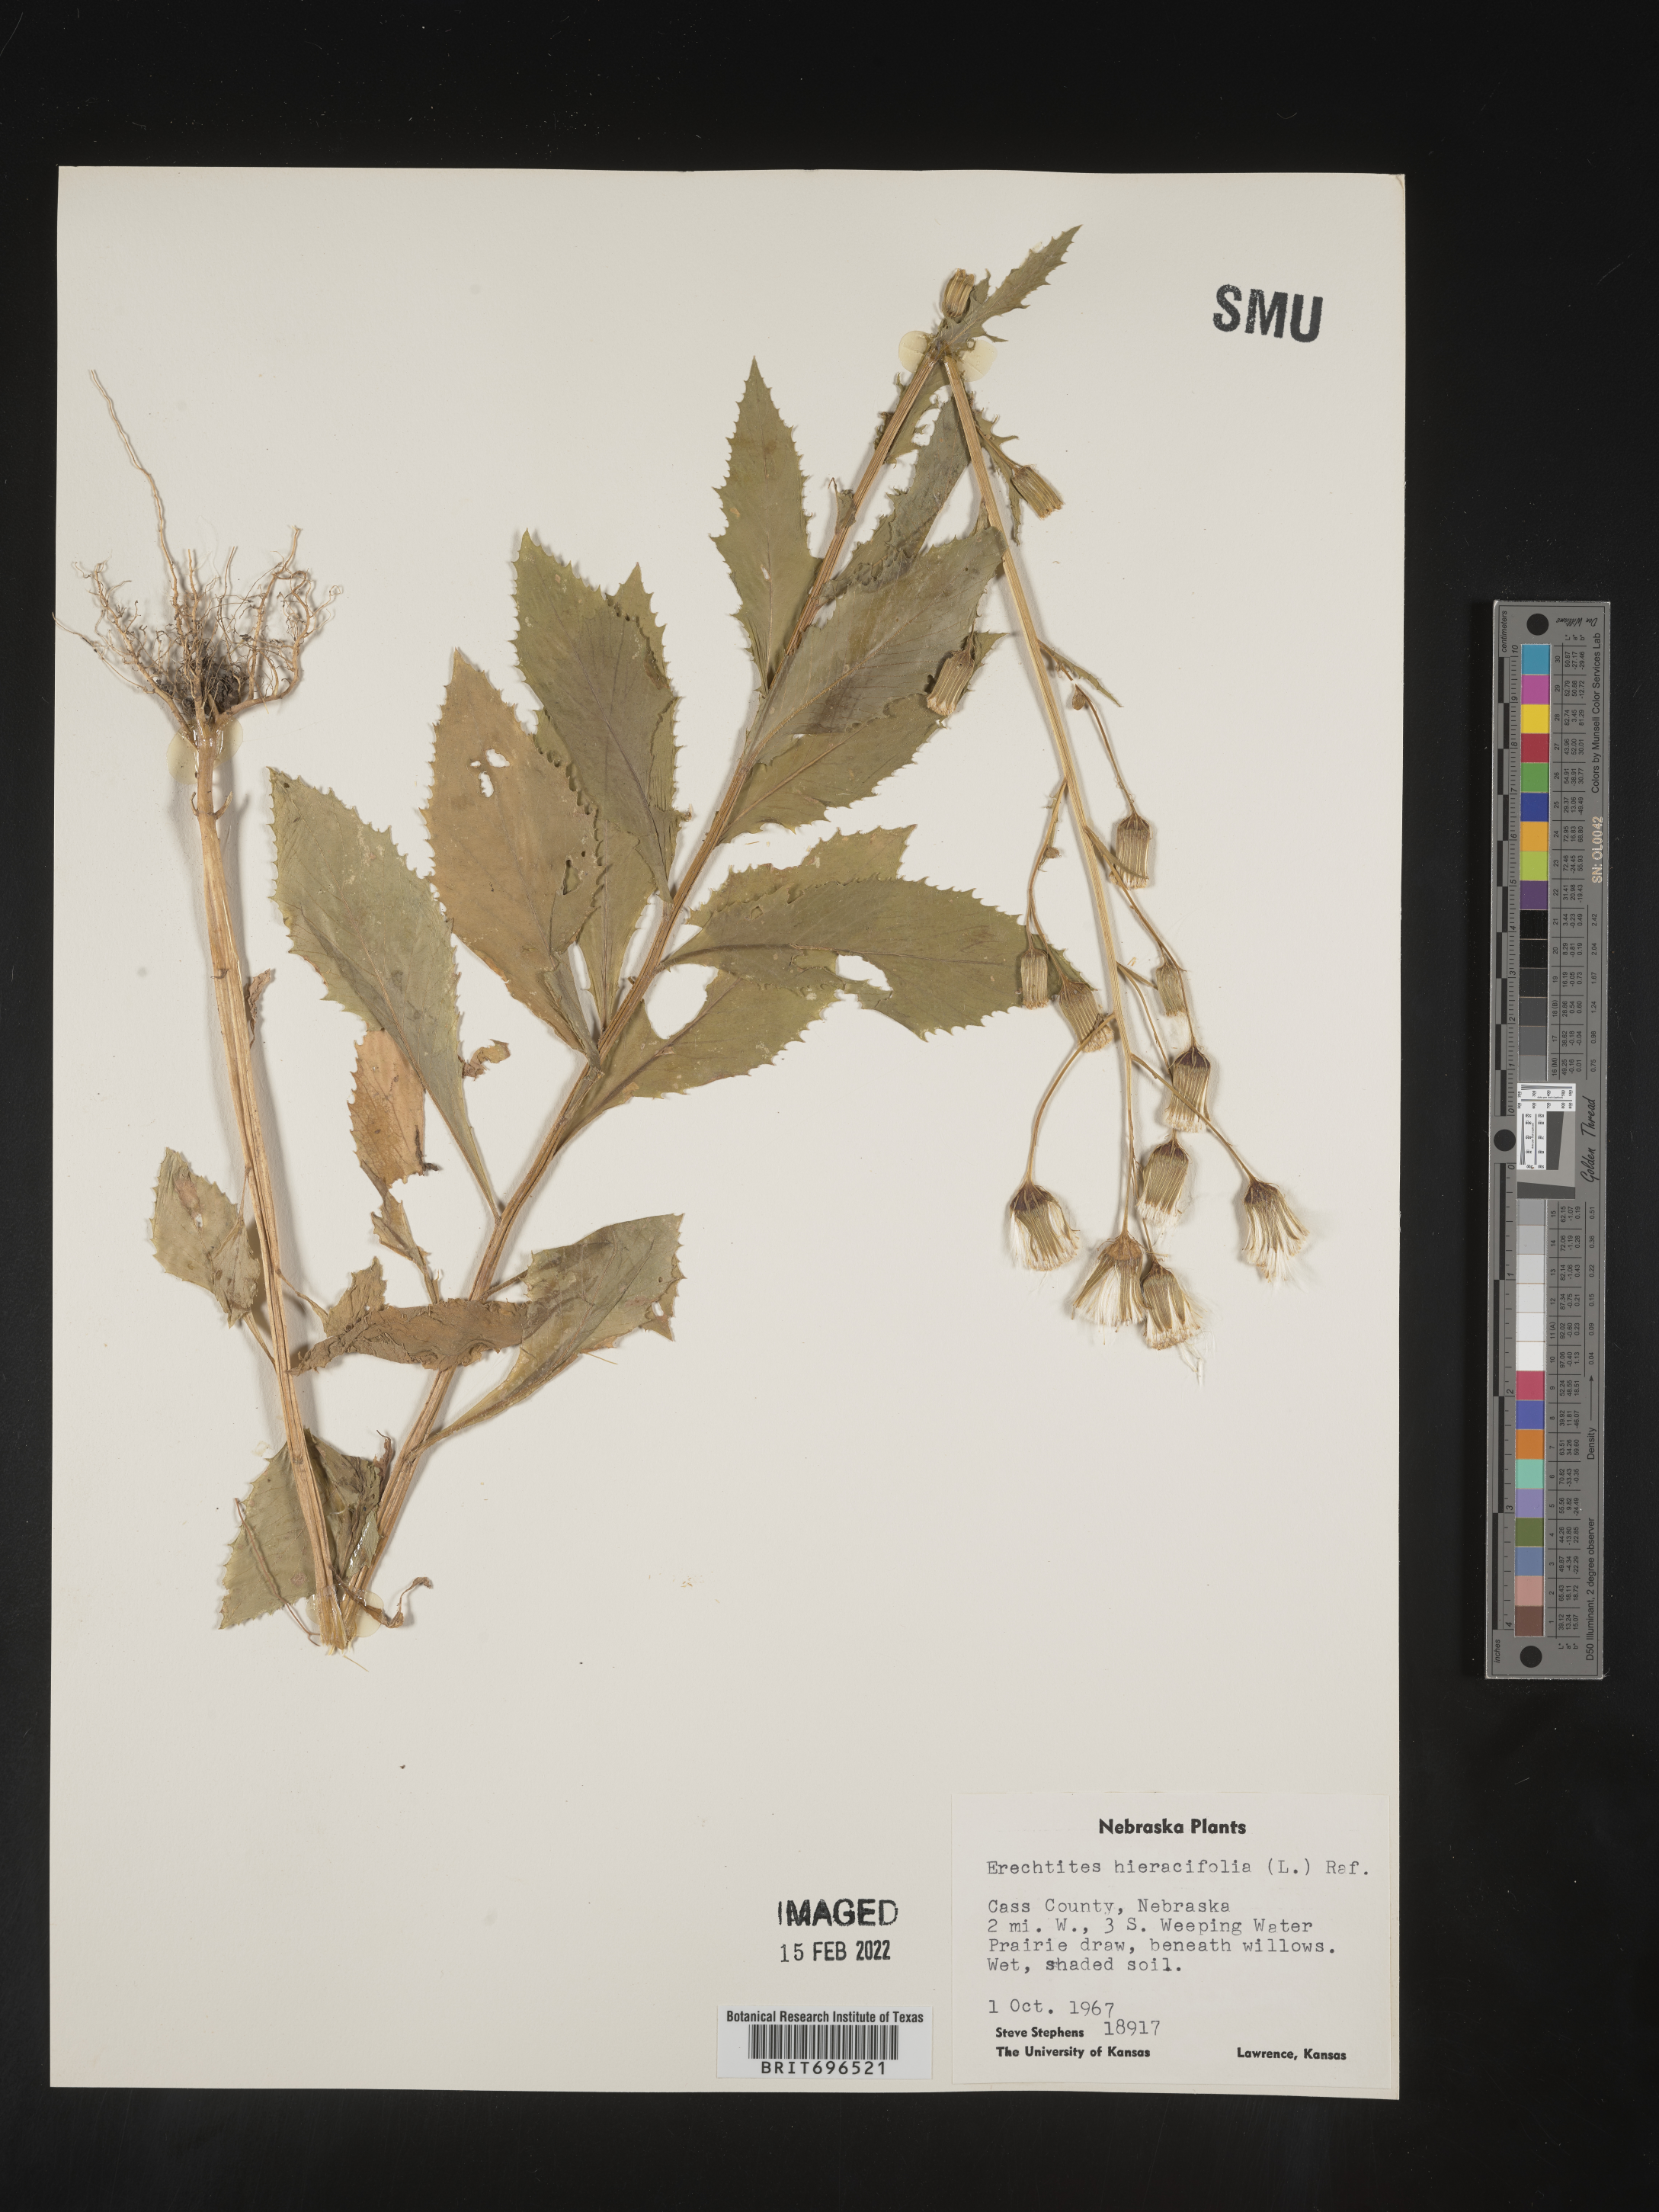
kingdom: Plantae
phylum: Tracheophyta
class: Magnoliopsida
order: Asterales
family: Asteraceae
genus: Erechtites
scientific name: Erechtites hieraciifolius
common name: American burnweed
